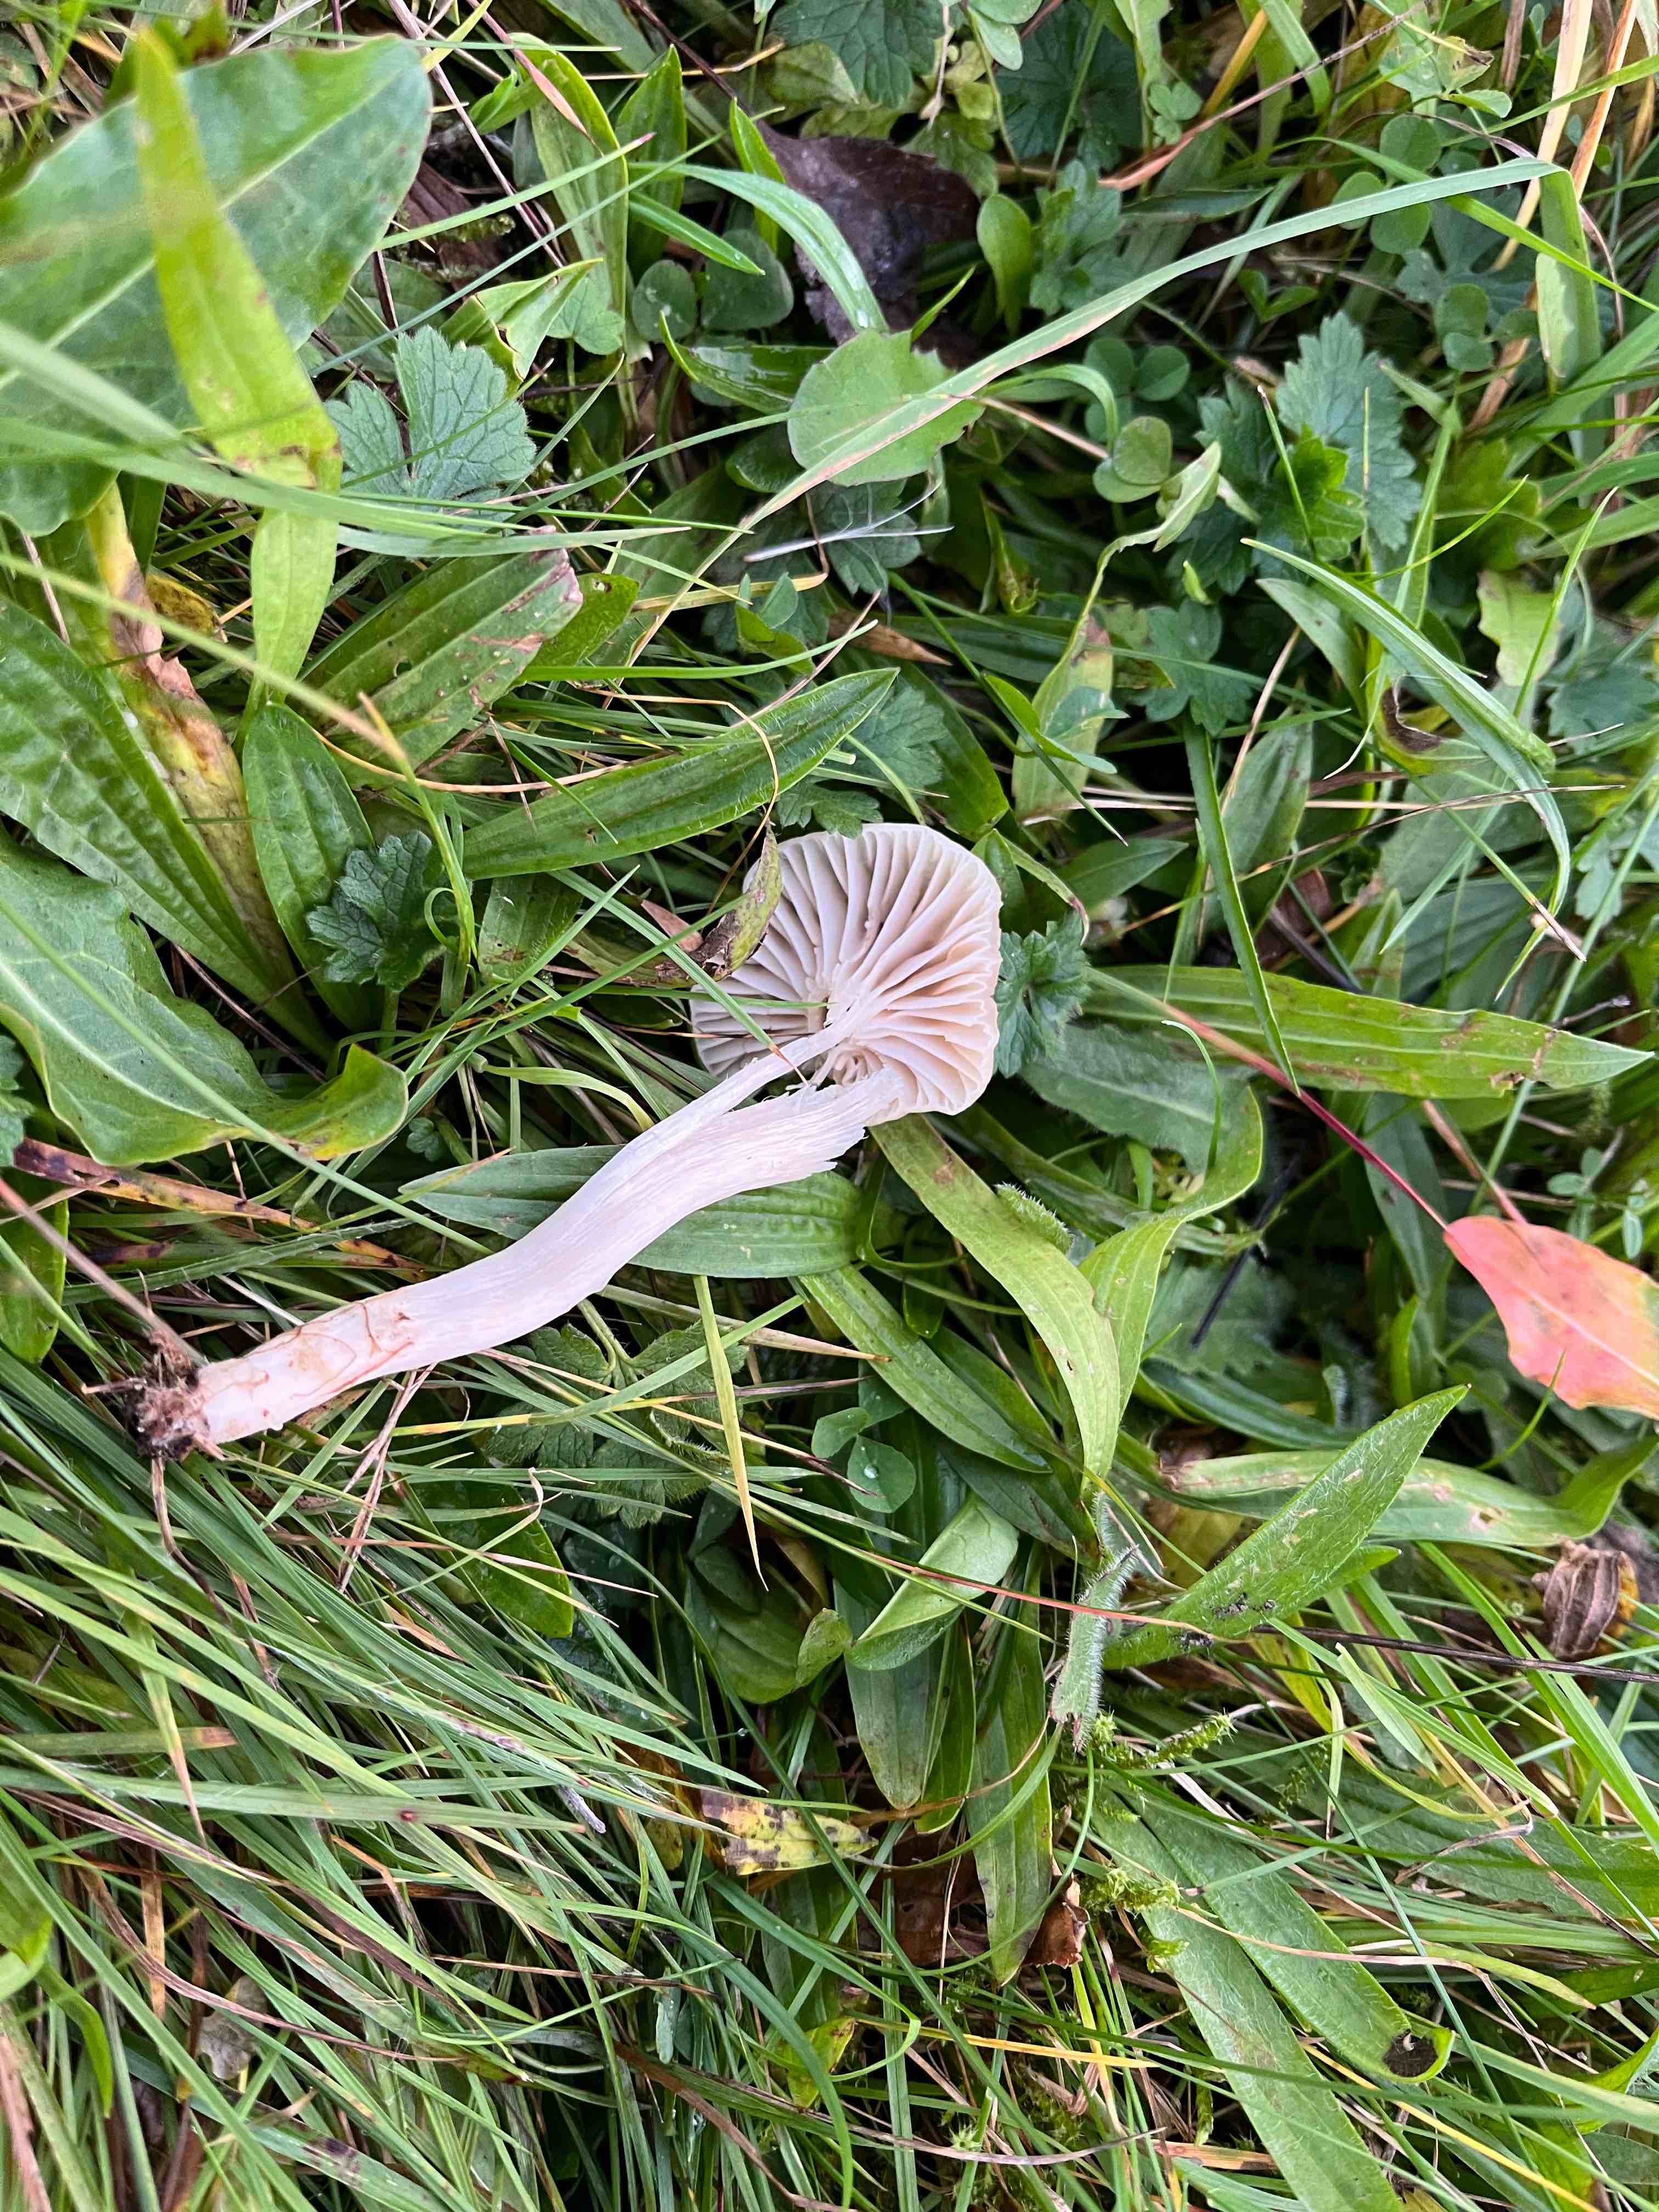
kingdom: Fungi
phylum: Basidiomycota
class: Agaricomycetes
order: Agaricales
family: Hygrophoraceae
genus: Cuphophyllus
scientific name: Cuphophyllus
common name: vokshat
